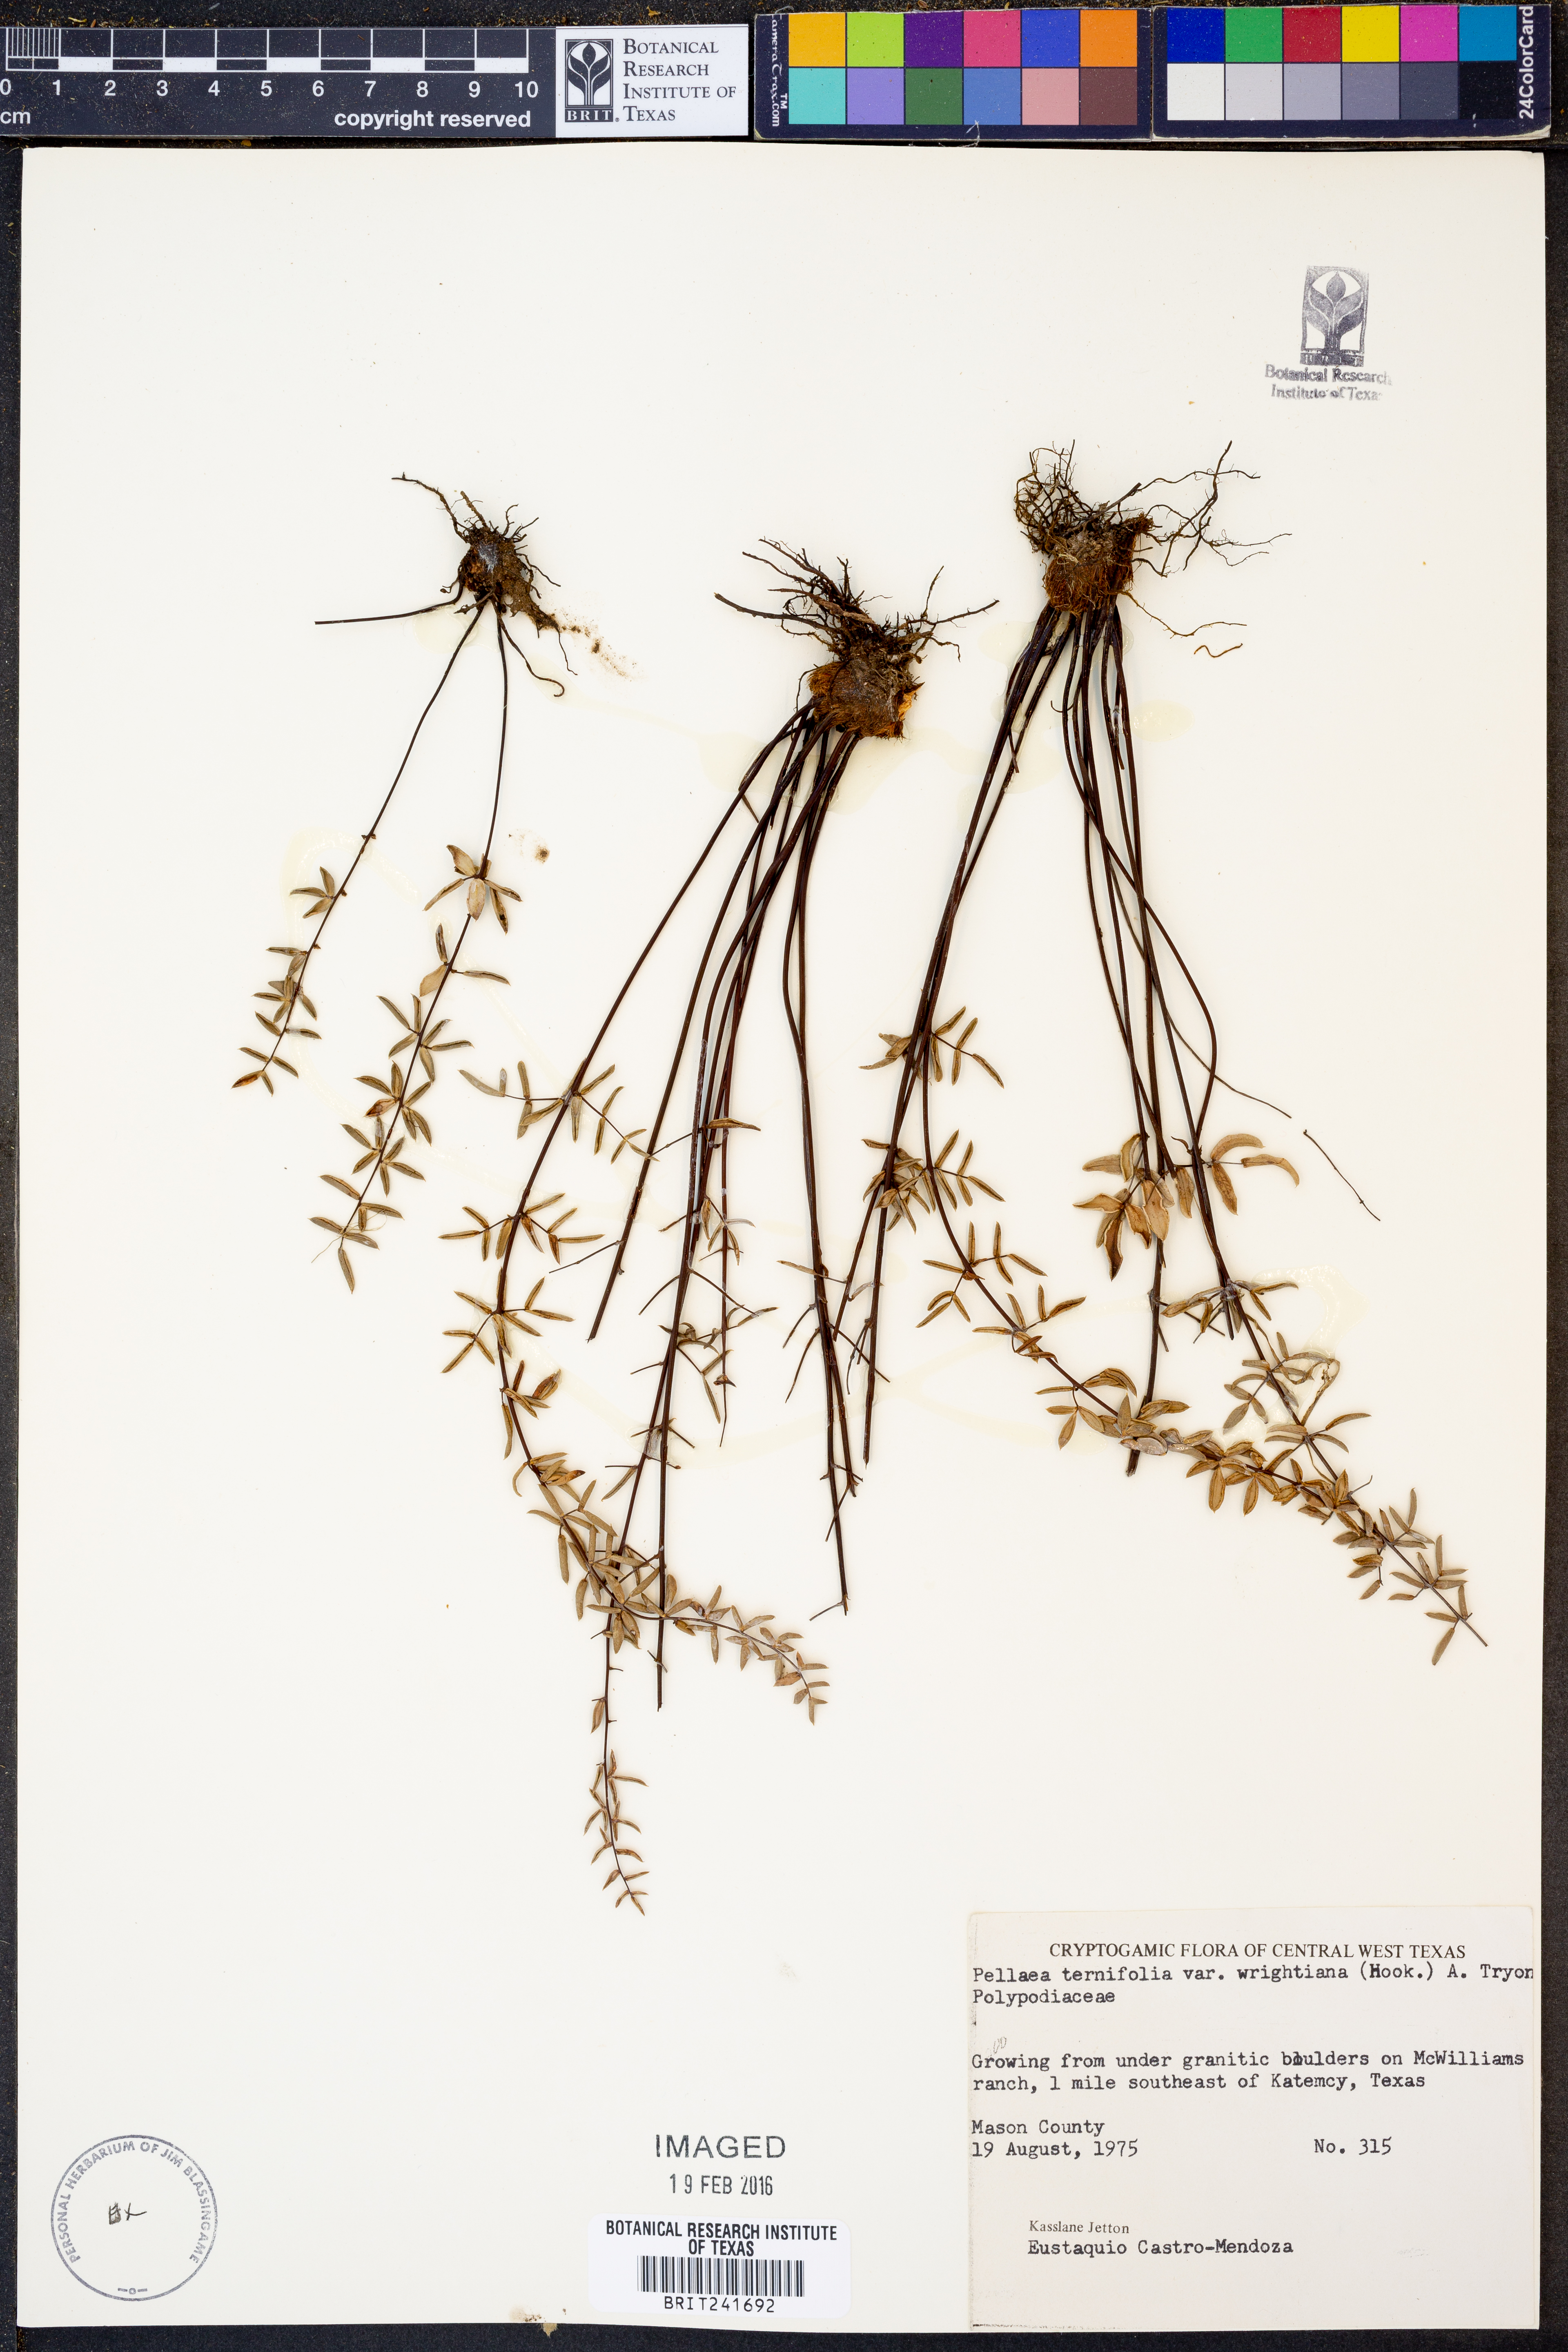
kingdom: Plantae
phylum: Tracheophyta
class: Polypodiopsida
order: Polypodiales
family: Pteridaceae
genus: Pellaea
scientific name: Pellaea wrightiana
